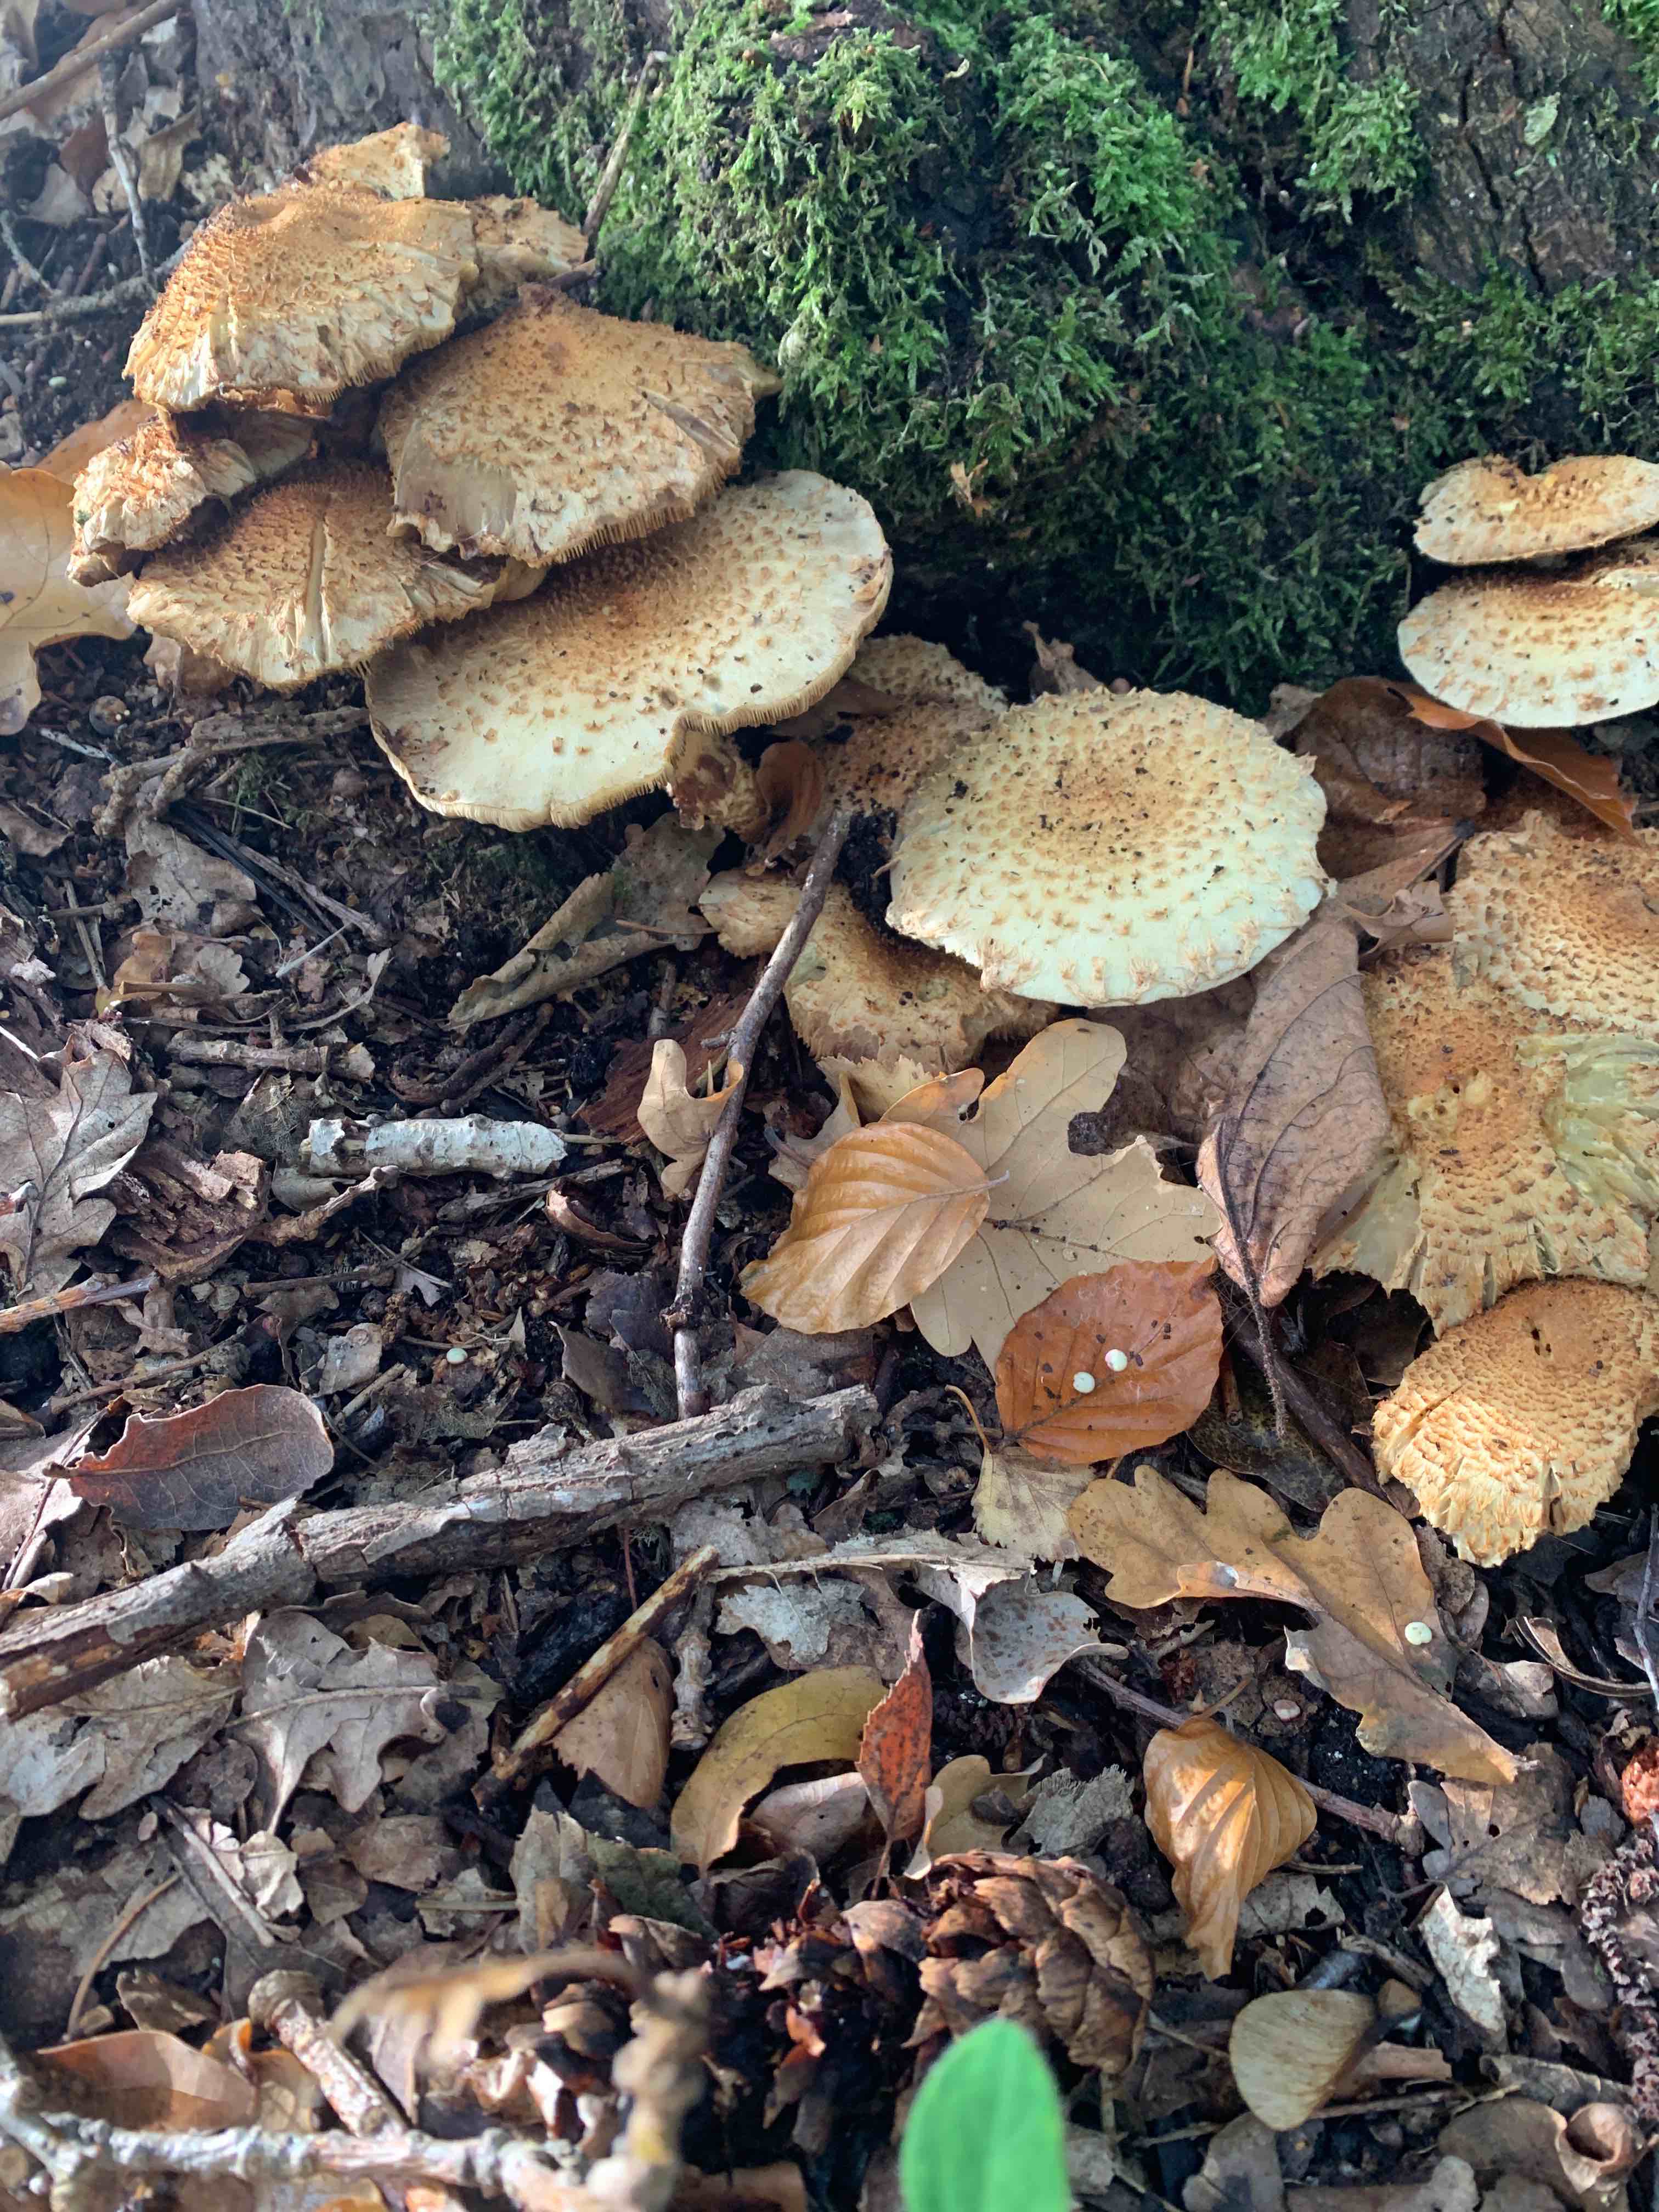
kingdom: Fungi
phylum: Basidiomycota
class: Agaricomycetes
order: Agaricales
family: Strophariaceae
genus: Pholiota
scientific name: Pholiota squarrosa
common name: krumskællet skælhat
